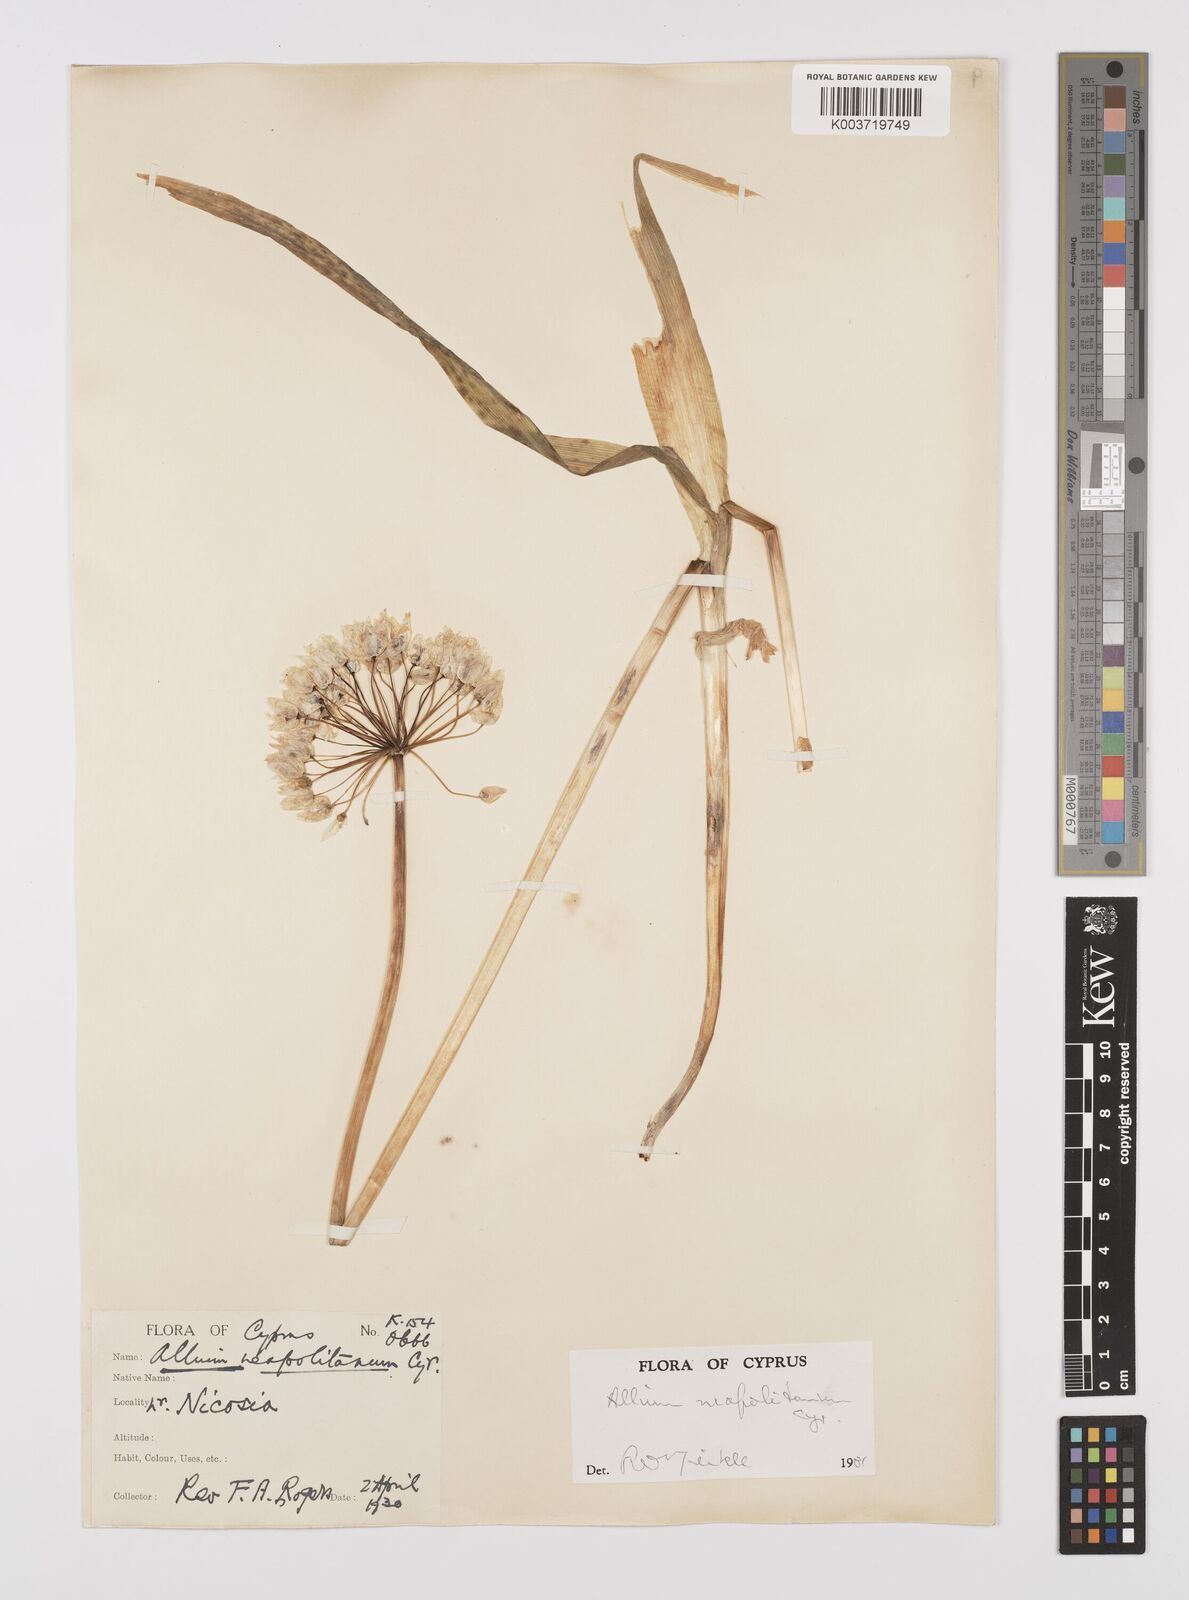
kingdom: Plantae
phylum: Tracheophyta
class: Liliopsida
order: Asparagales
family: Amaryllidaceae
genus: Allium
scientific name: Allium neapolitanum
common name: Neapolitan garlic
